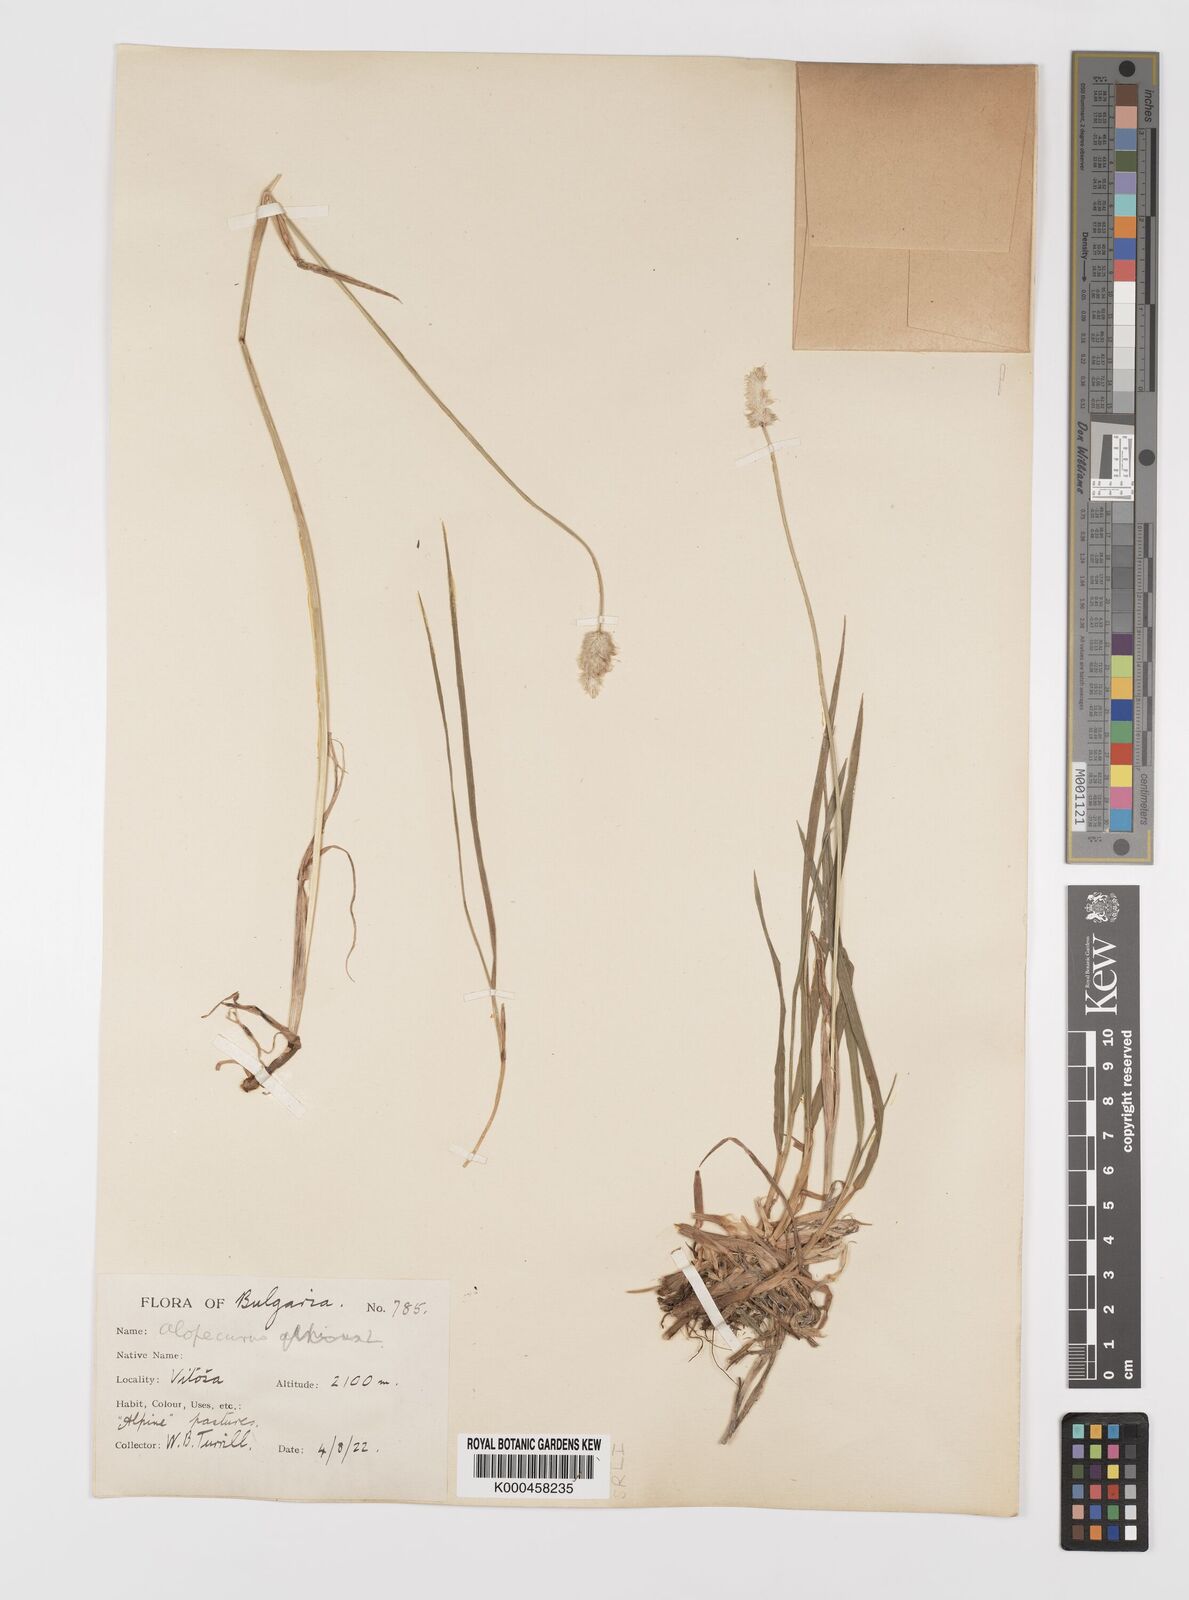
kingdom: Plantae
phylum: Tracheophyta
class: Liliopsida
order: Poales
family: Poaceae
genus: Alopecurus
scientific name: Alopecurus himalaicus
